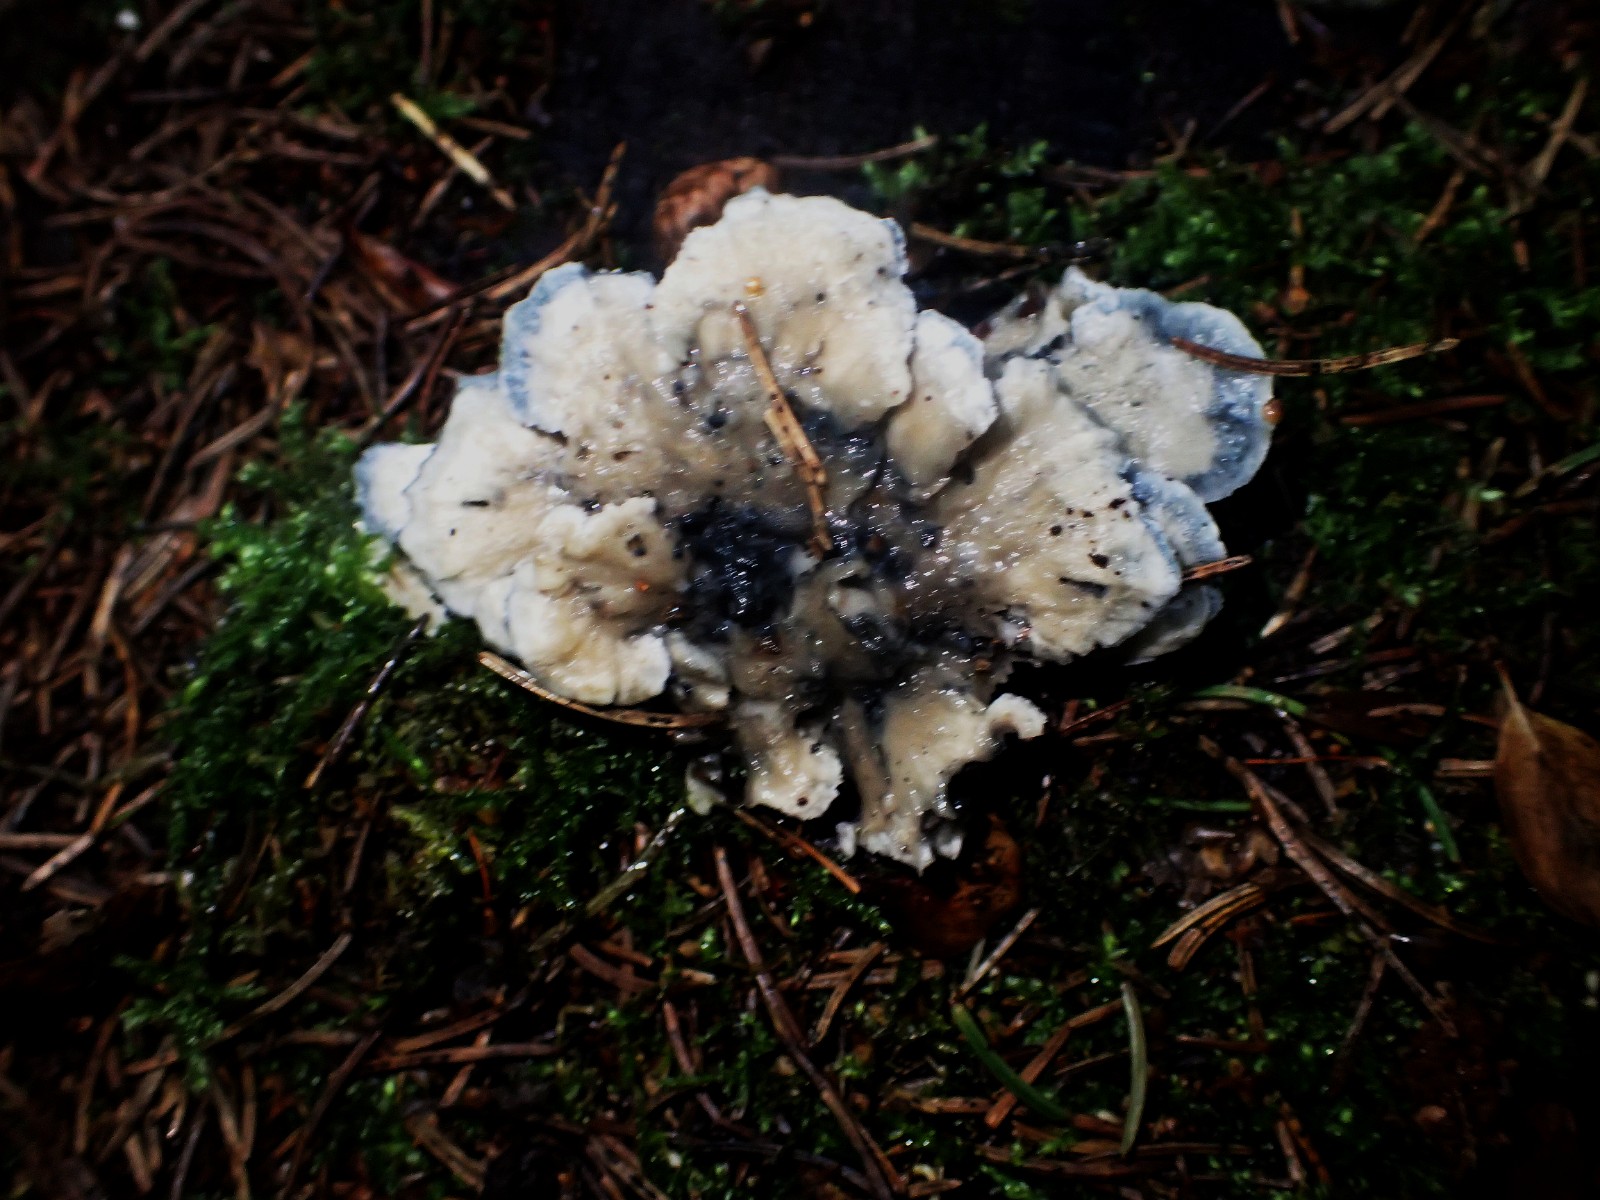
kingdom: Fungi
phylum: Basidiomycota
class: Agaricomycetes
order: Polyporales
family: Polyporaceae
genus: Cyanosporus
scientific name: Cyanosporus caesius
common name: blålig kødporesvamp
